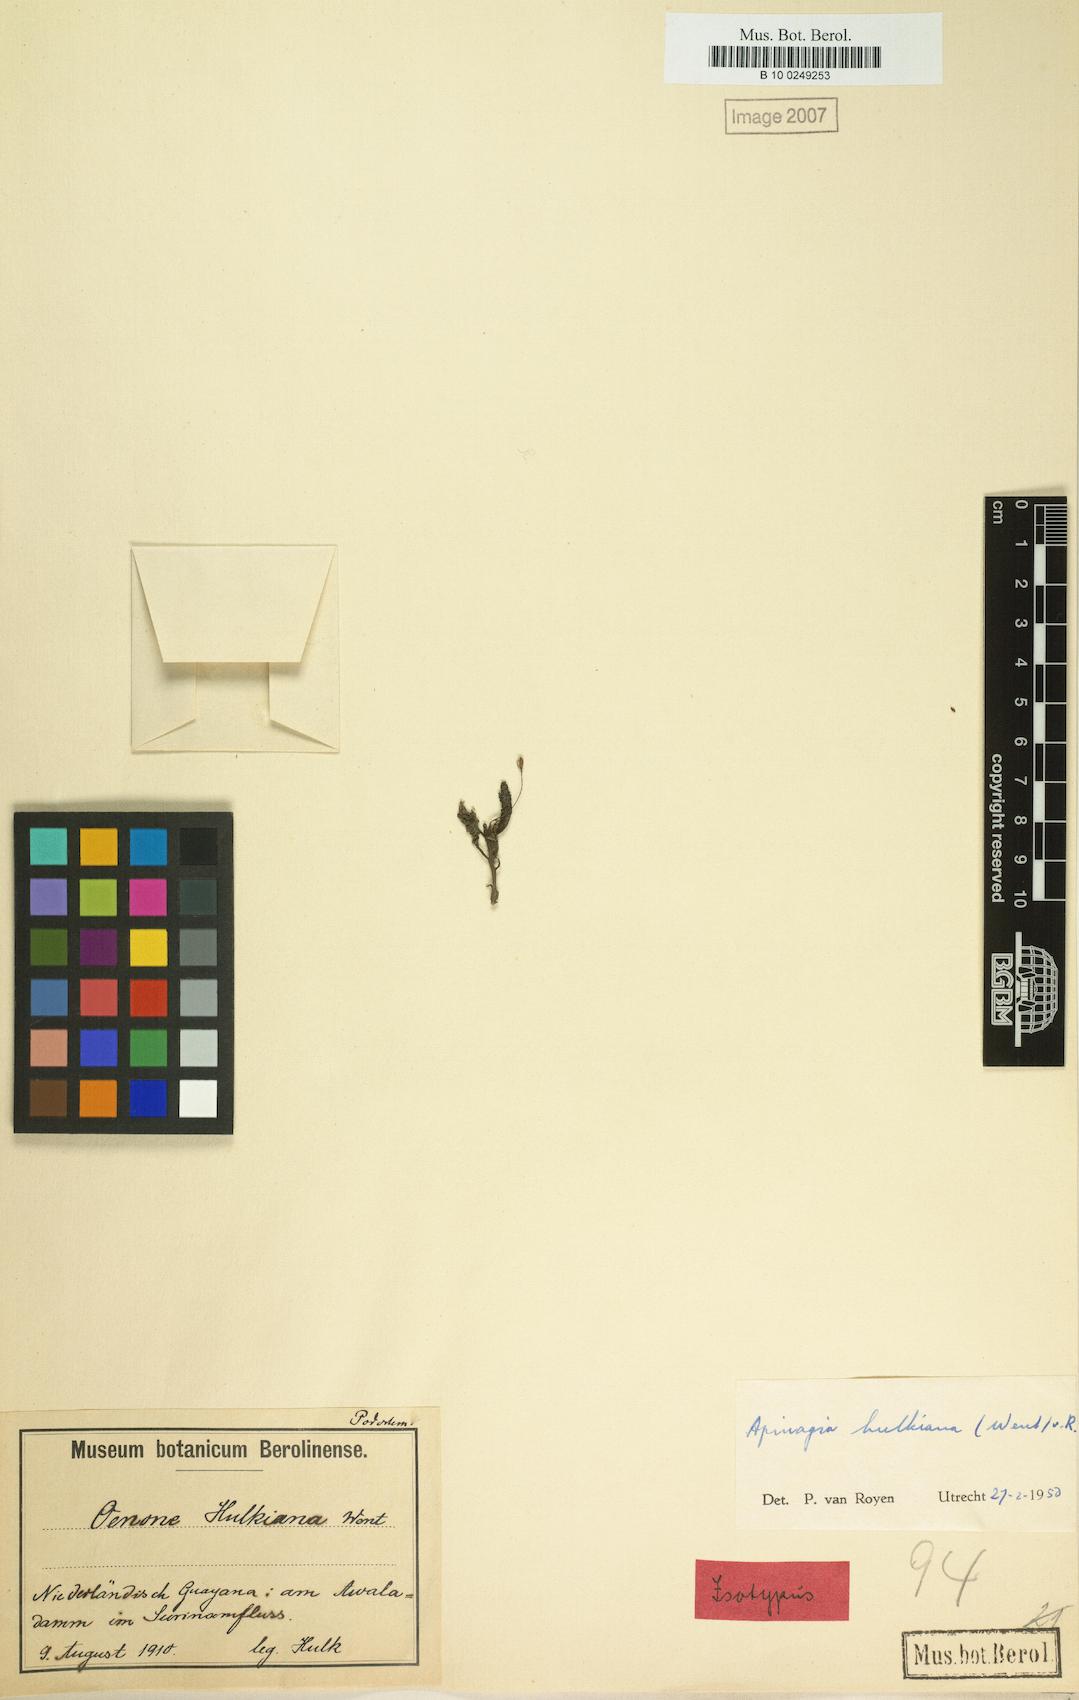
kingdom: Plantae
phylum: Tracheophyta
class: Magnoliopsida
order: Malpighiales
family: Podostemaceae
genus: Apinagia
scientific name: Apinagia hulkiana
